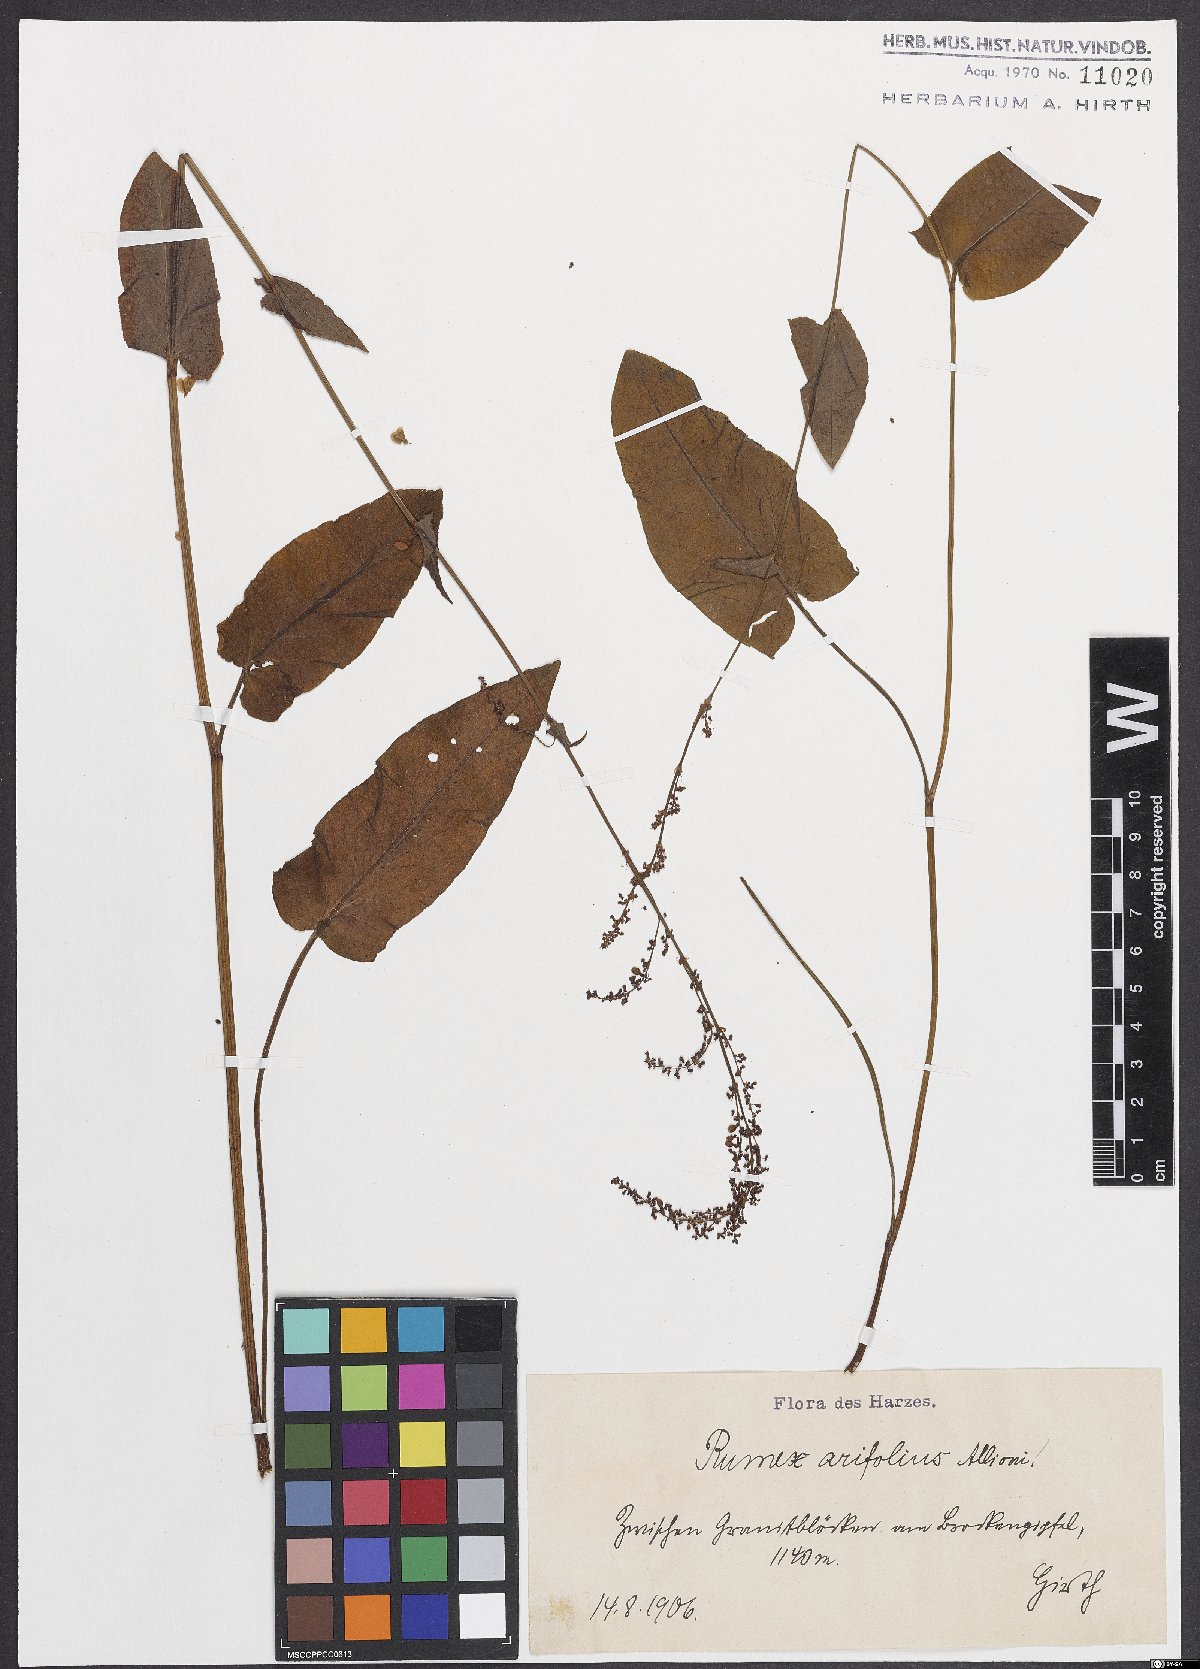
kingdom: Plantae
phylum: Tracheophyta
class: Magnoliopsida
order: Caryophyllales
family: Polygonaceae
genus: Rumex
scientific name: Rumex arifolius
